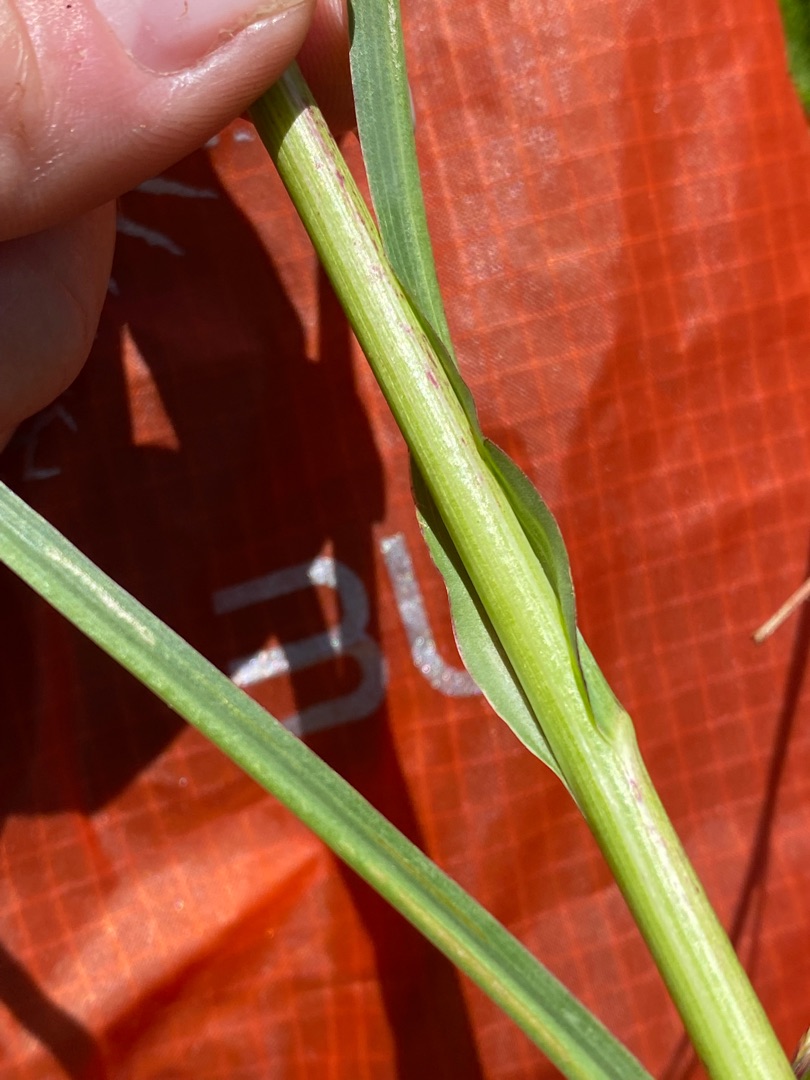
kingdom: Plantae
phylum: Tracheophyta
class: Magnoliopsida
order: Asterales
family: Asteraceae
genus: Tragopogon
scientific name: Tragopogon pratensis
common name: Gedeskæg
